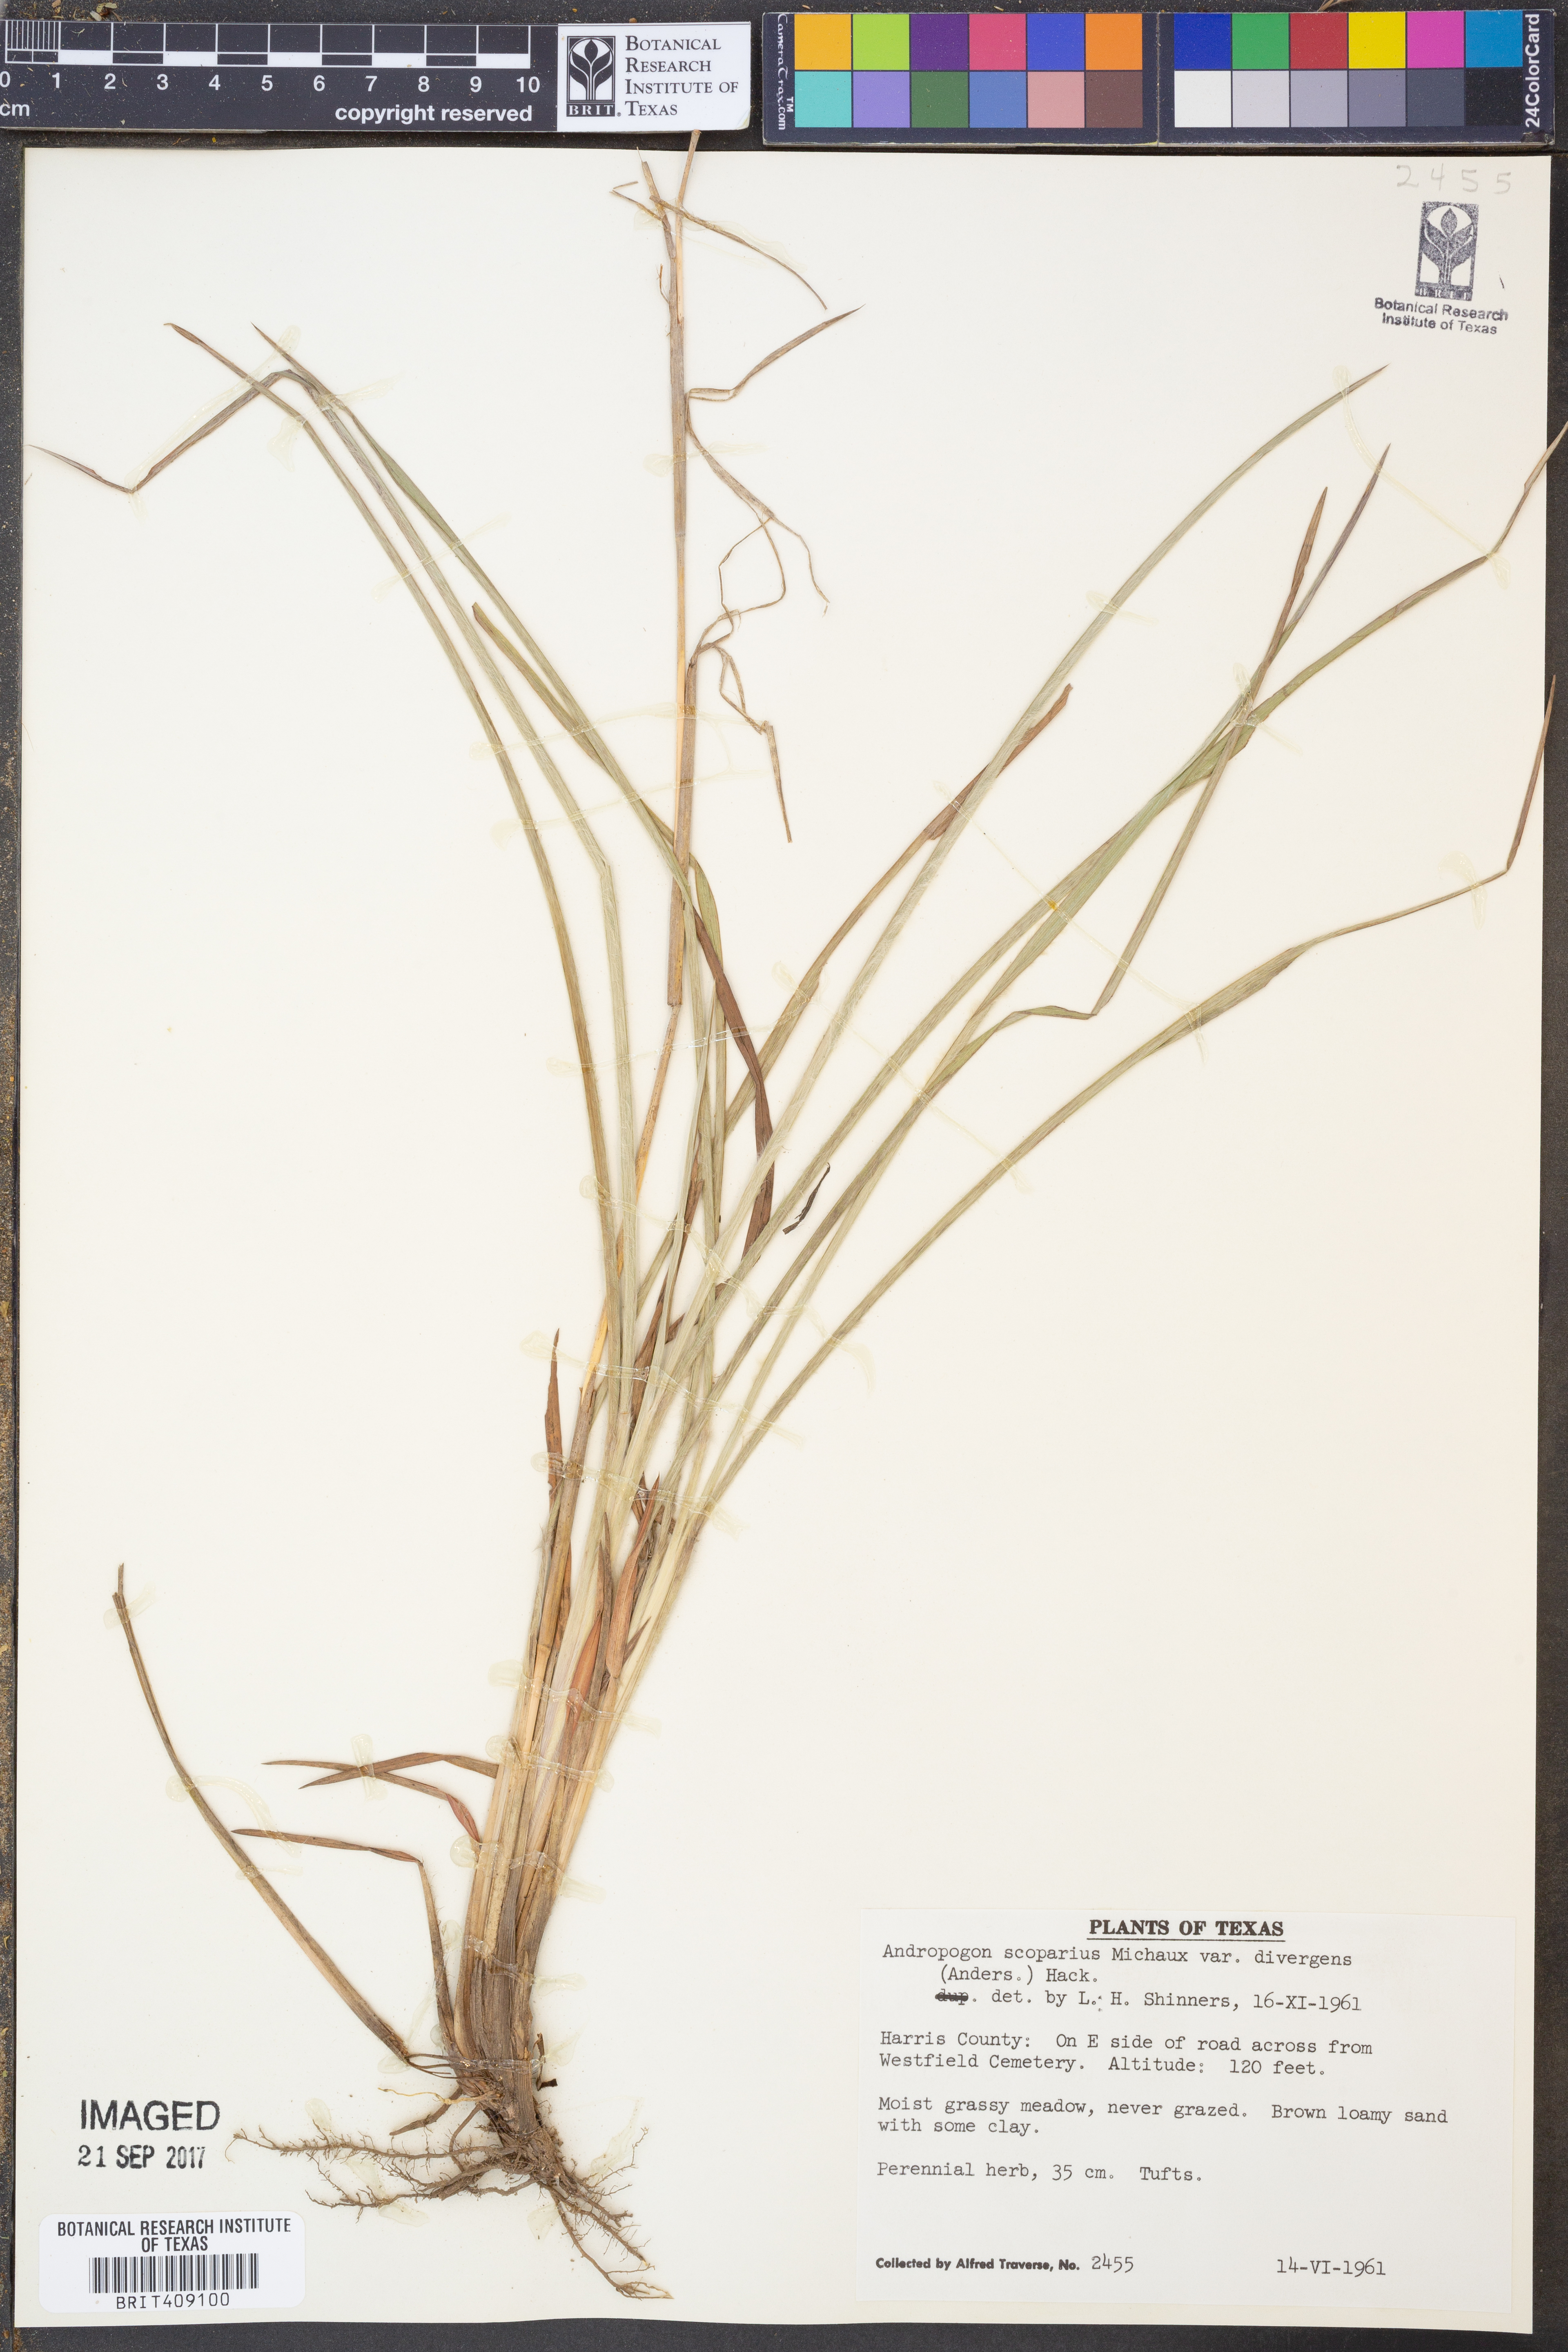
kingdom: Plantae
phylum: Tracheophyta
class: Liliopsida
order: Poales
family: Poaceae
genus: Schizachyrium
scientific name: Schizachyrium scoparium
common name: Little bluestem
